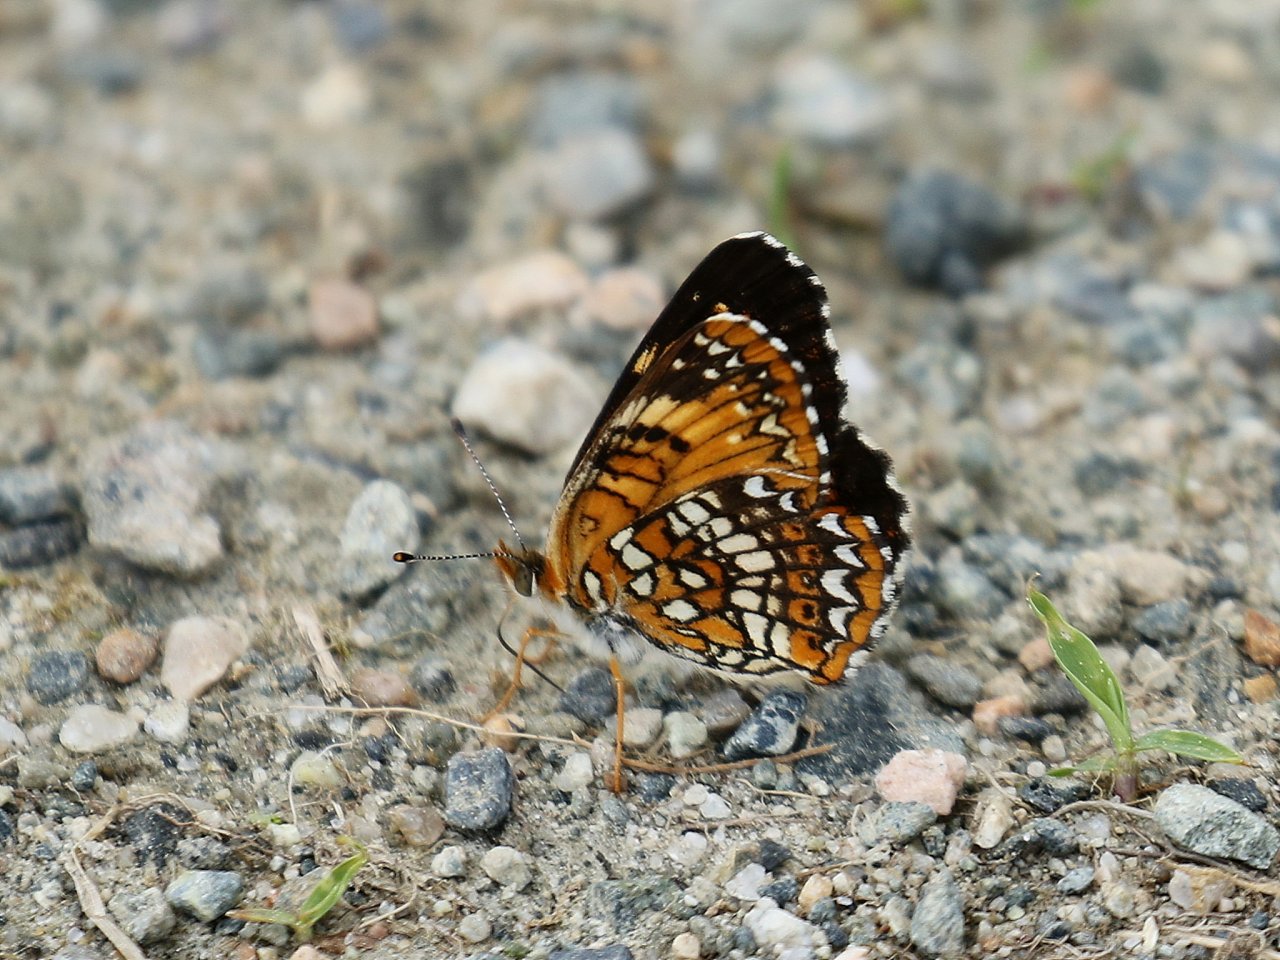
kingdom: Animalia
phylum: Arthropoda
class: Insecta
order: Lepidoptera
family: Nymphalidae
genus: Chlosyne
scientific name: Chlosyne harrisii
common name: Harris's Checkerspot
